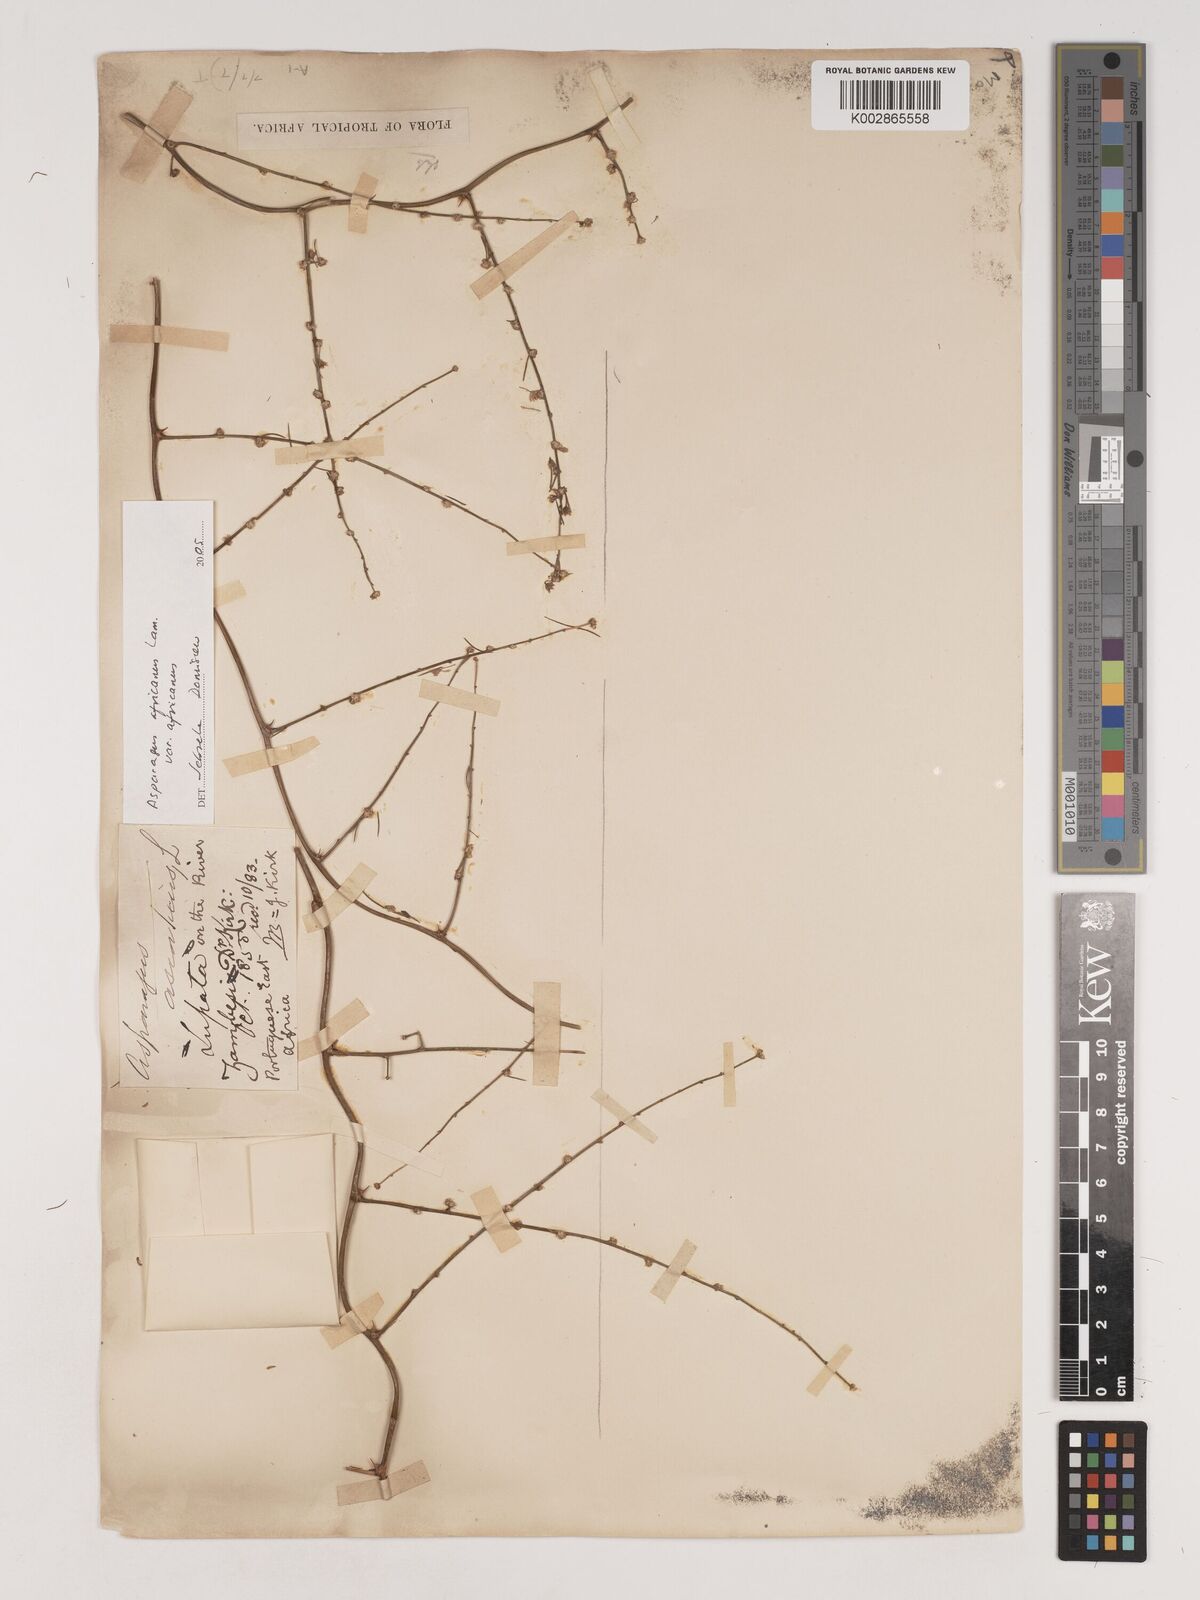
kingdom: Plantae
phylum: Tracheophyta
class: Liliopsida
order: Asparagales
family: Asparagaceae
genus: Asparagus
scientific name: Asparagus africanus
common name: Asparagus-fern
